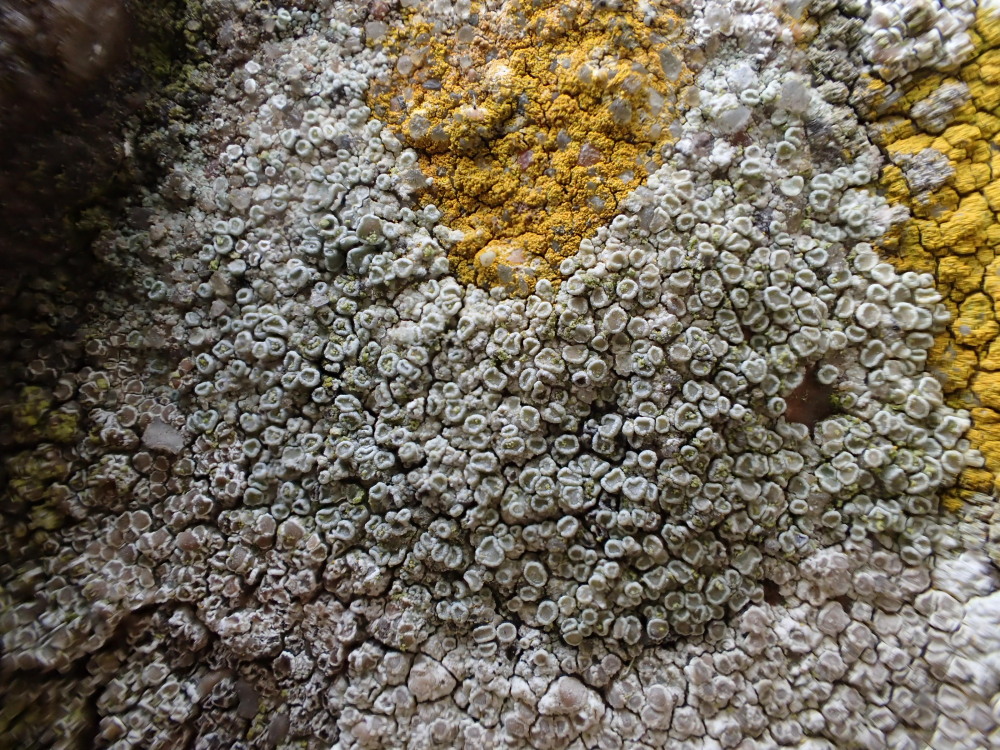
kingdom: Fungi
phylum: Ascomycota
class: Lecanoromycetes
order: Lecanorales
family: Lecanoraceae
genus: Polyozosia
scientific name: Polyozosia albescens
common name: cement-kantskivelav
